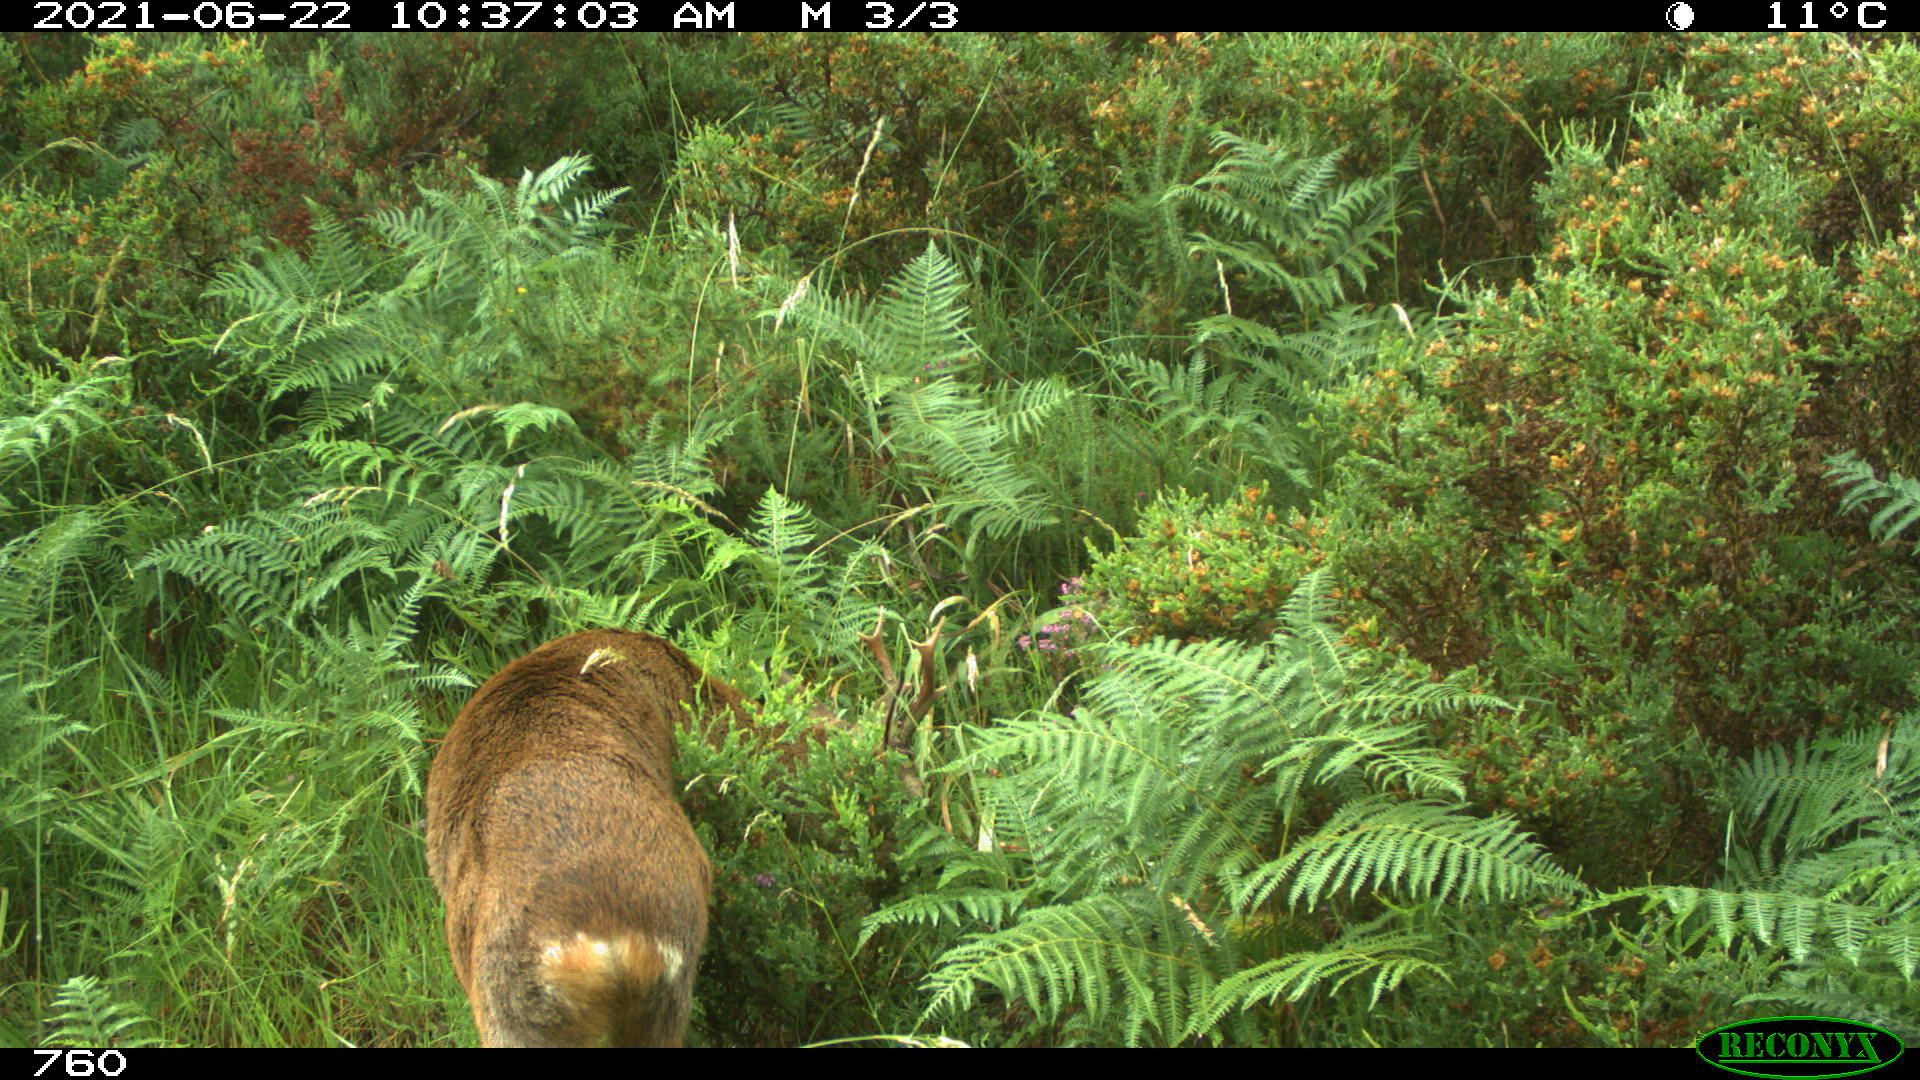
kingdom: Animalia
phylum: Chordata
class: Mammalia
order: Artiodactyla
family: Cervidae
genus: Capreolus
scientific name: Capreolus capreolus
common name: Western roe deer
